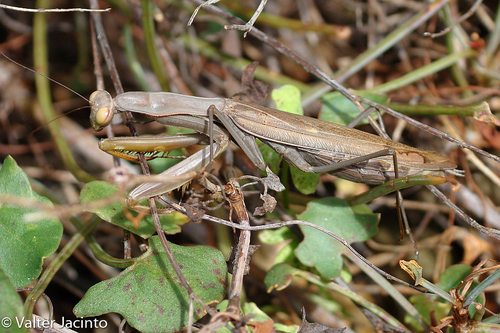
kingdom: Animalia
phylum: Arthropoda
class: Insecta
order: Mantodea
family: Mantidae
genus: Mantis
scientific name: Mantis religiosa
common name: Praying mantis
